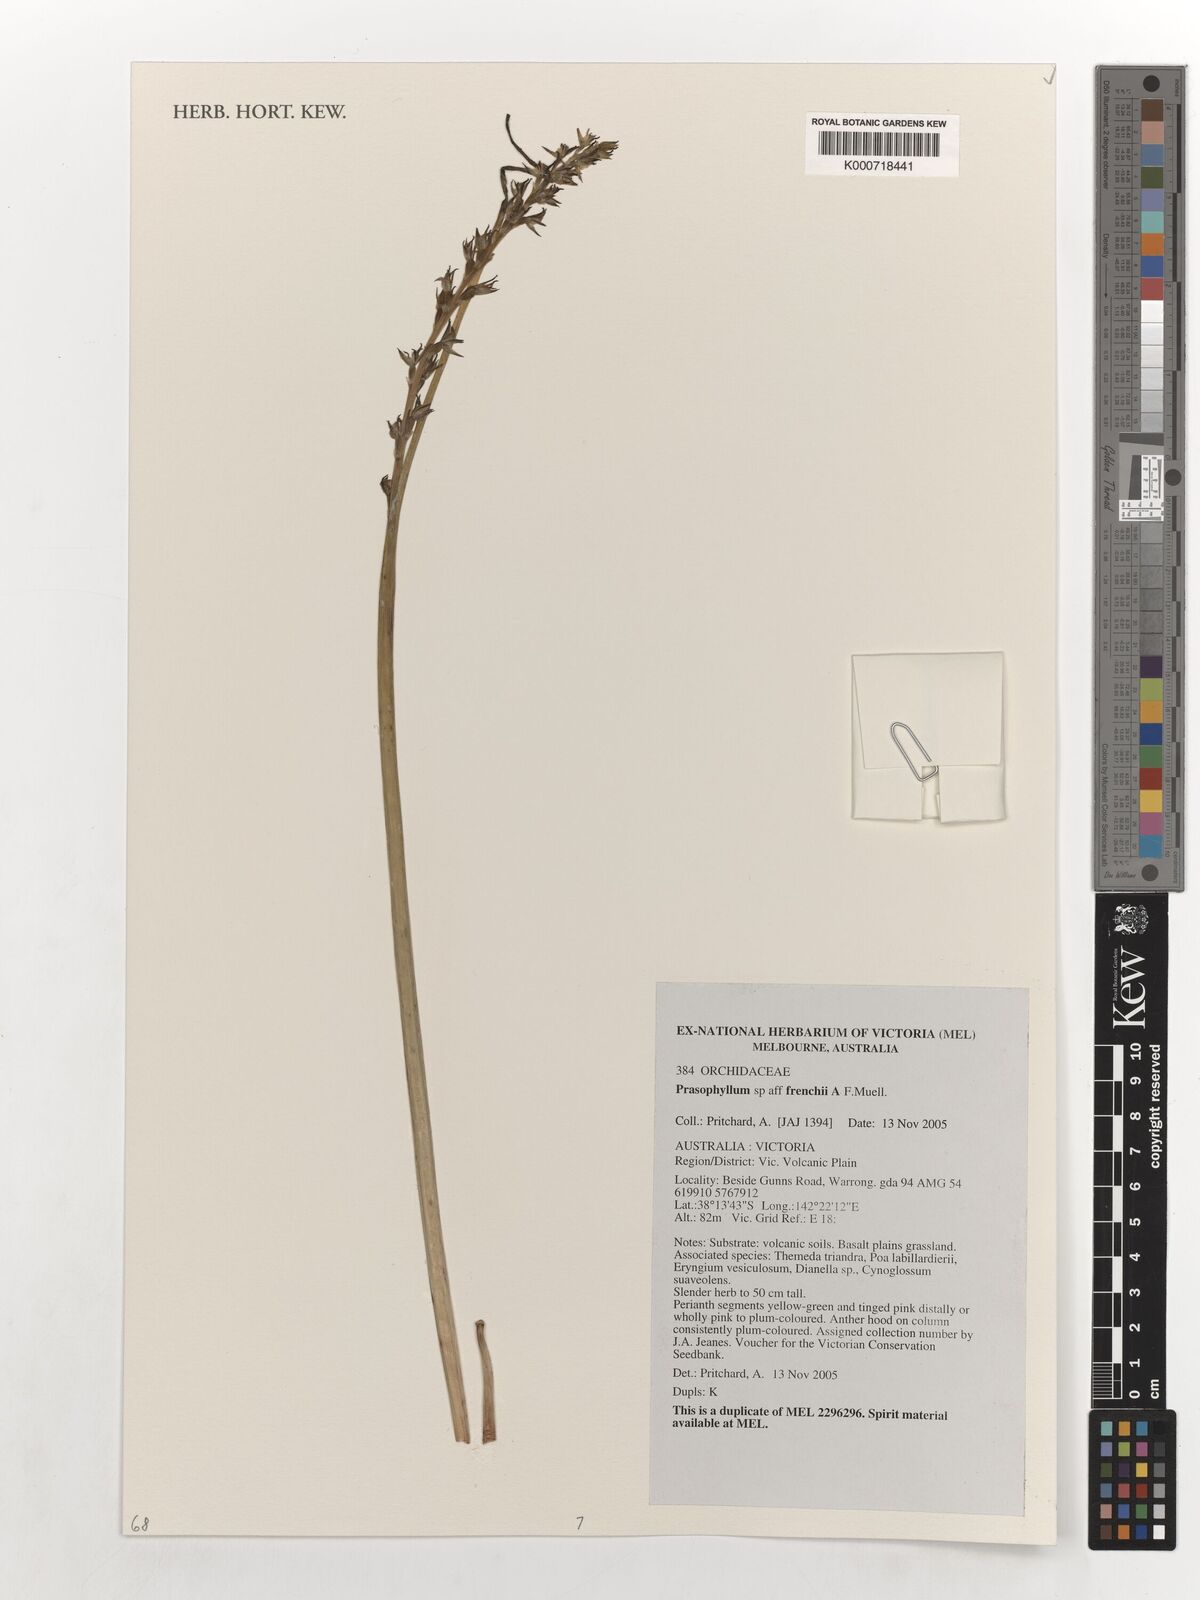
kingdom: Plantae
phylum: Tracheophyta
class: Liliopsida
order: Asparagales
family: Orchidaceae
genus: Prasophyllum
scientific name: Prasophyllum frenchii
